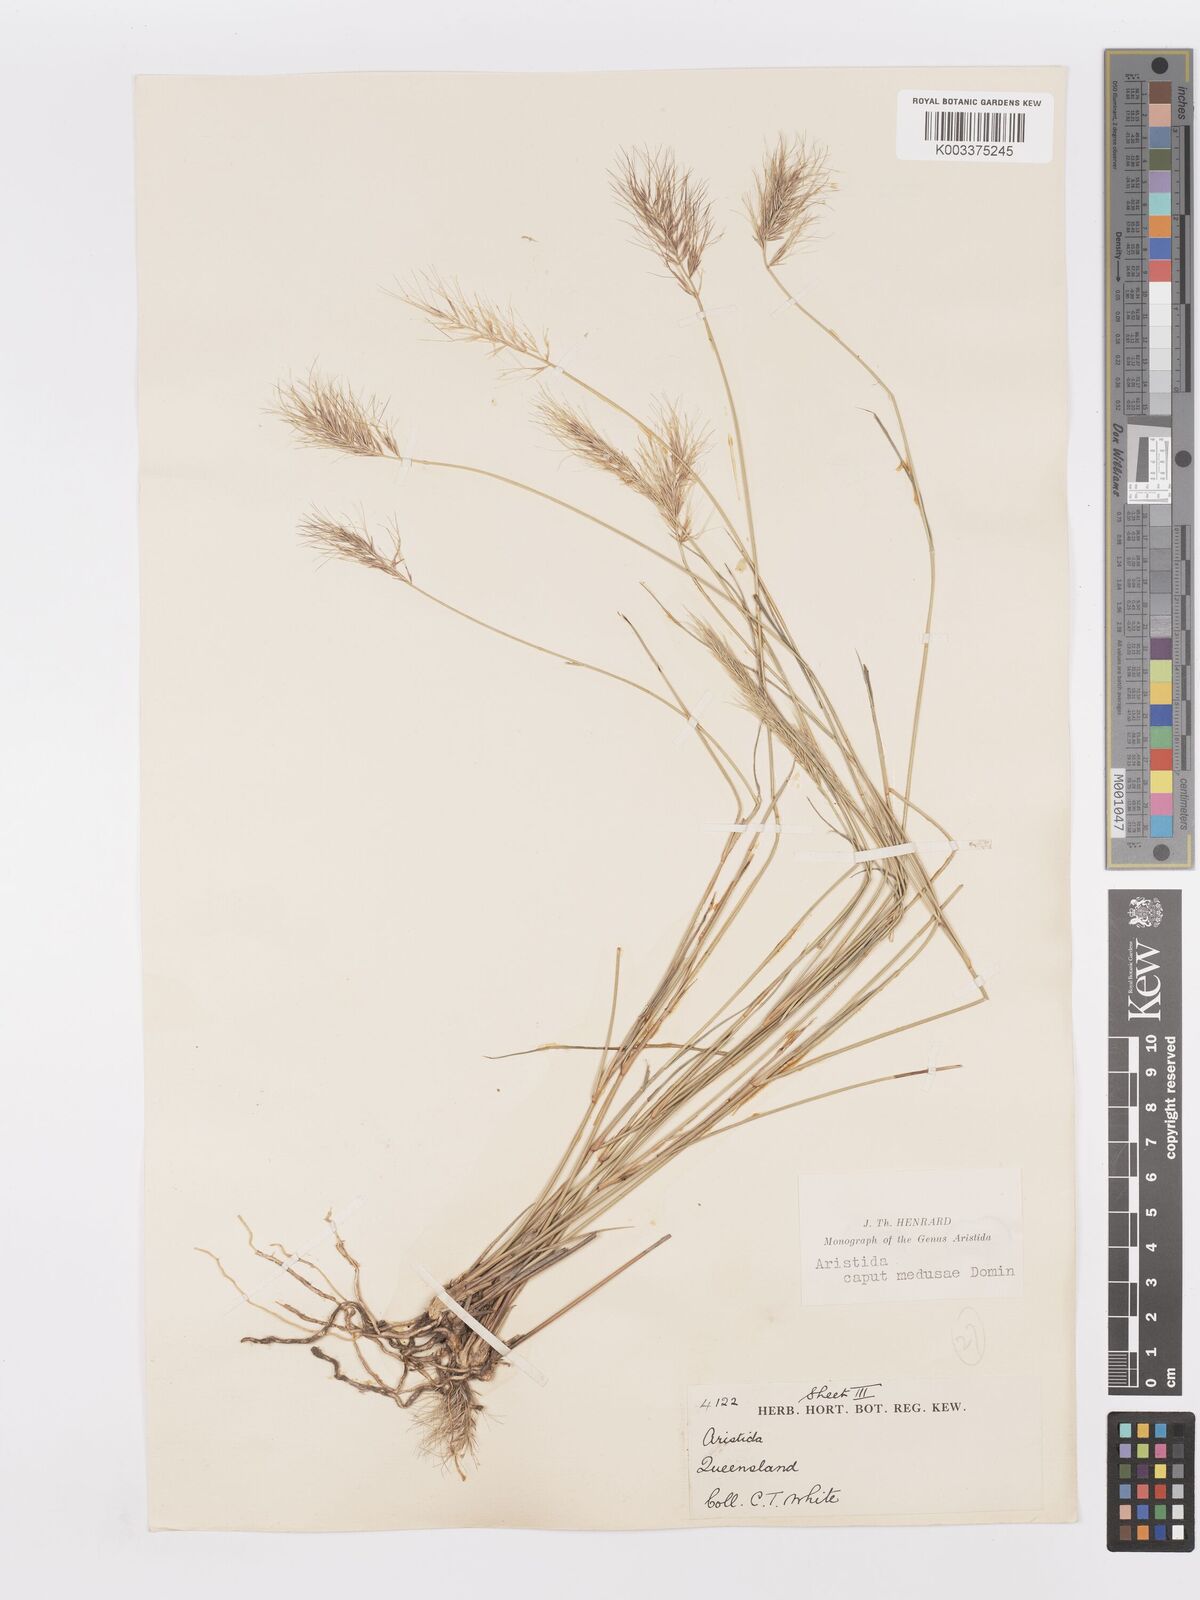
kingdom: Plantae
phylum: Tracheophyta
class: Liliopsida
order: Poales
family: Poaceae
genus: Aristida
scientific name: Aristida caput-medusae
